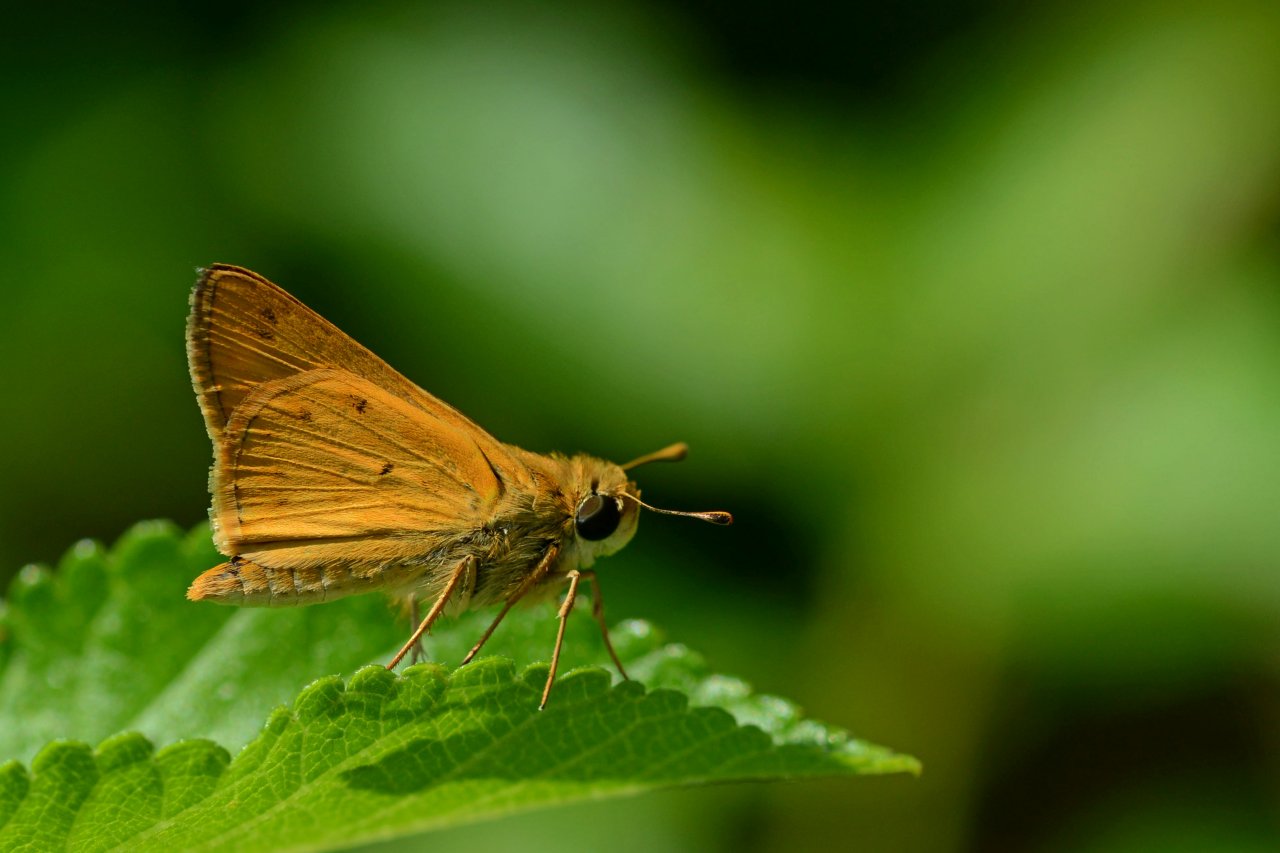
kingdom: Animalia
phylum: Arthropoda
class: Insecta
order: Lepidoptera
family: Hesperiidae
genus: Hylephila
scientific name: Hylephila phyleus
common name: Fiery Skipper
